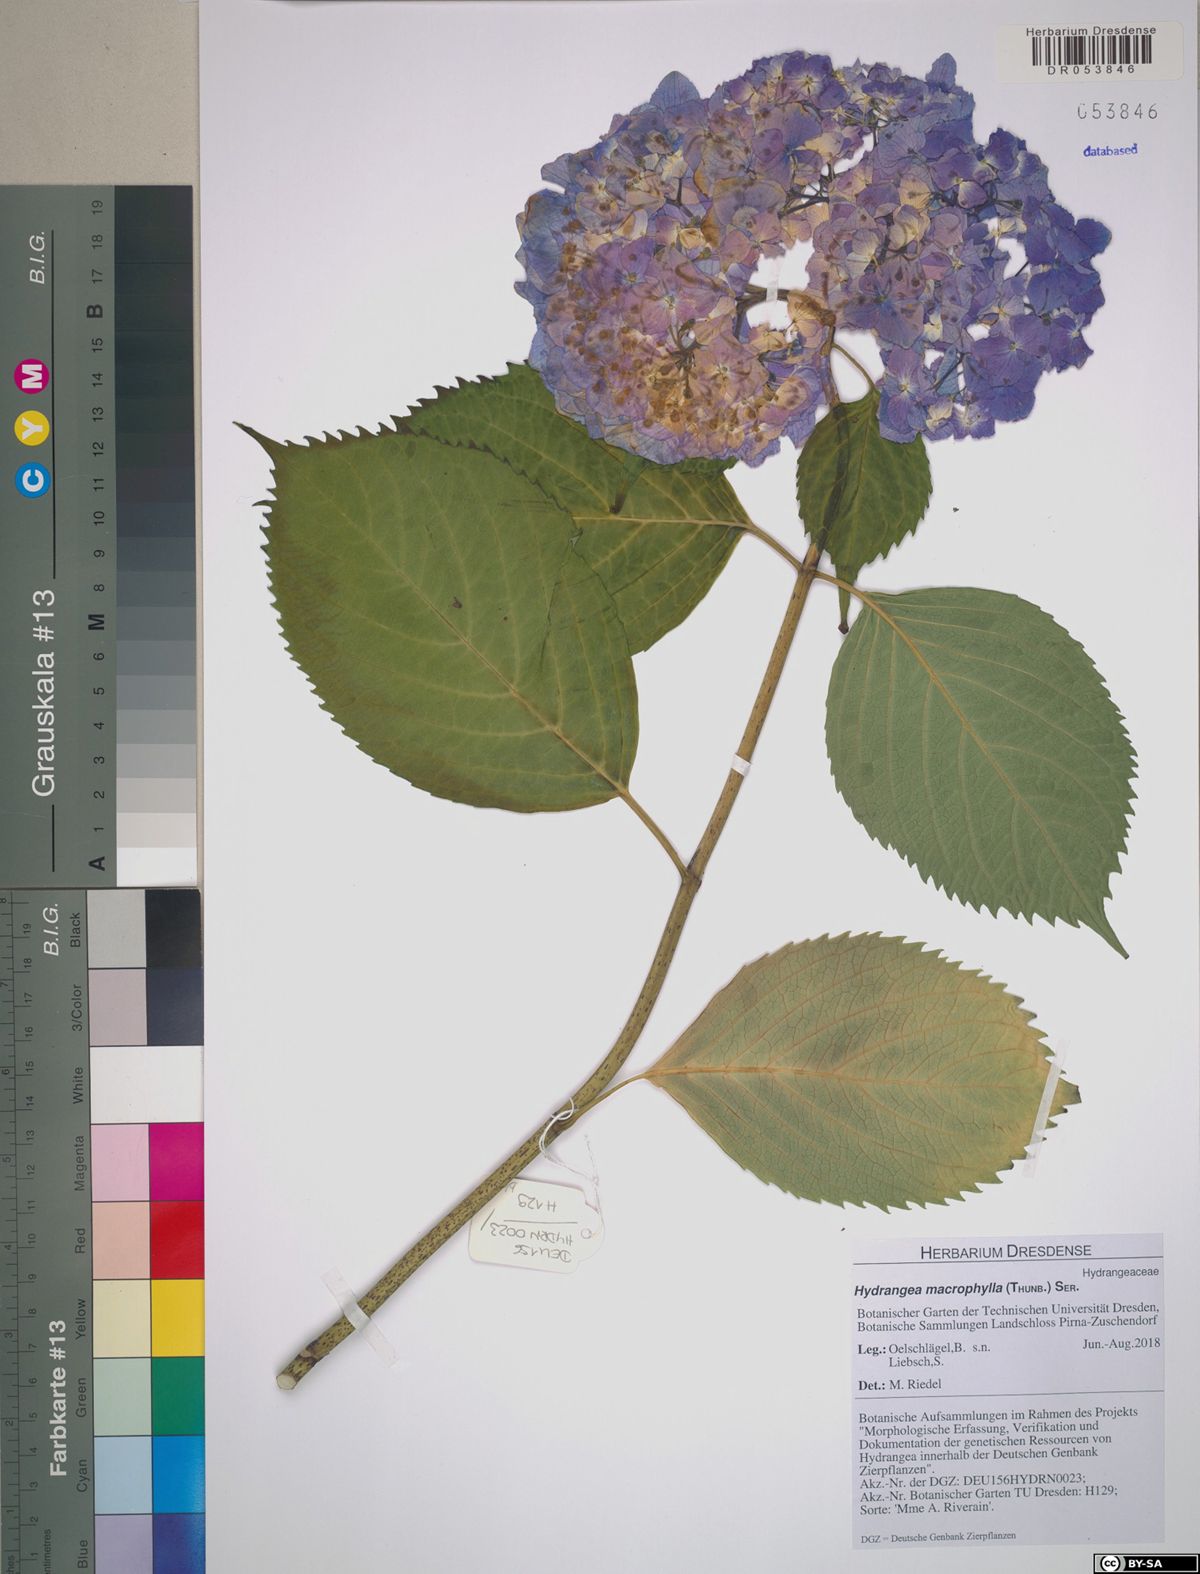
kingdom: Plantae
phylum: Tracheophyta
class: Magnoliopsida
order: Cornales
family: Hydrangeaceae
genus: Hydrangea
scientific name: Hydrangea macrophylla
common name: Hydrangea
